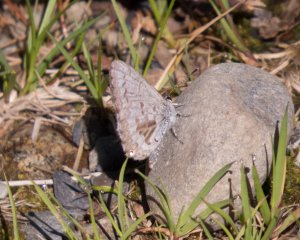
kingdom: Animalia
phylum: Arthropoda
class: Insecta
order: Lepidoptera
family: Lycaenidae
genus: Celastrina
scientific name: Celastrina lucia
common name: Northern Spring Azure
